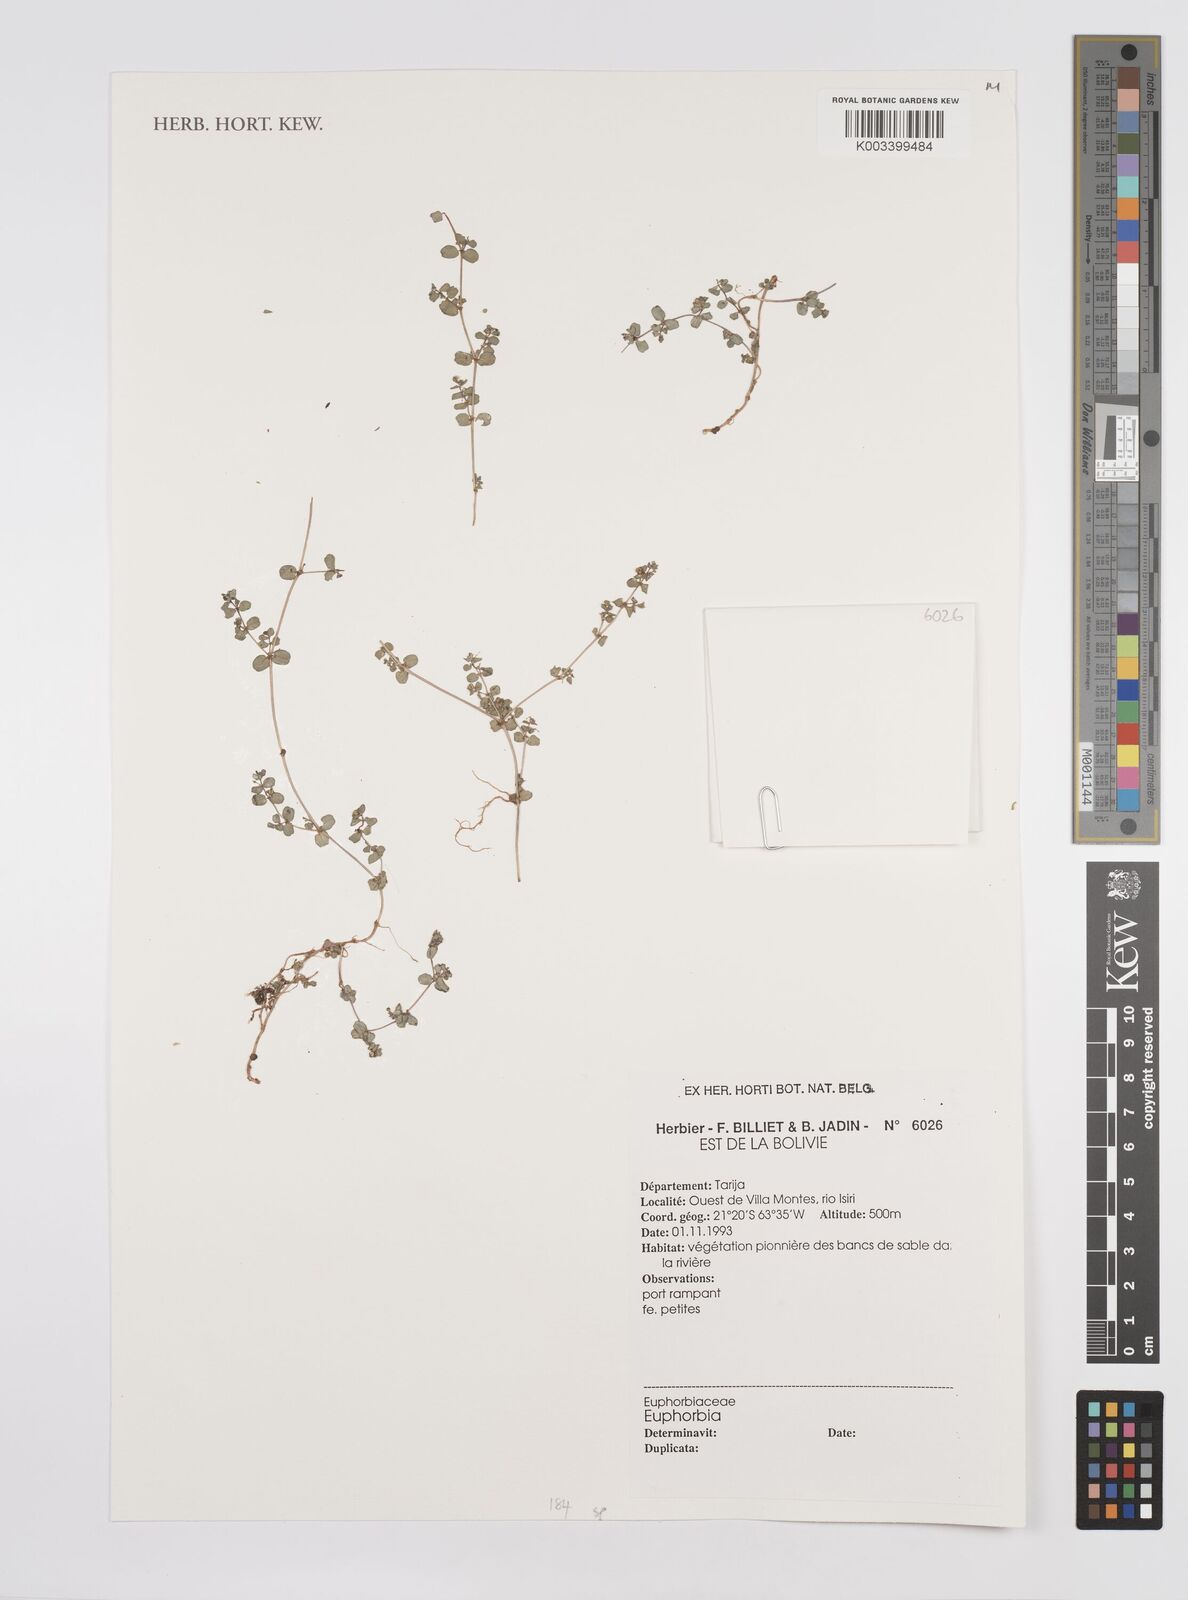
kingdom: Plantae
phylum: Tracheophyta
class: Magnoliopsida
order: Malpighiales
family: Euphorbiaceae
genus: Euphorbia
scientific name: Euphorbia
